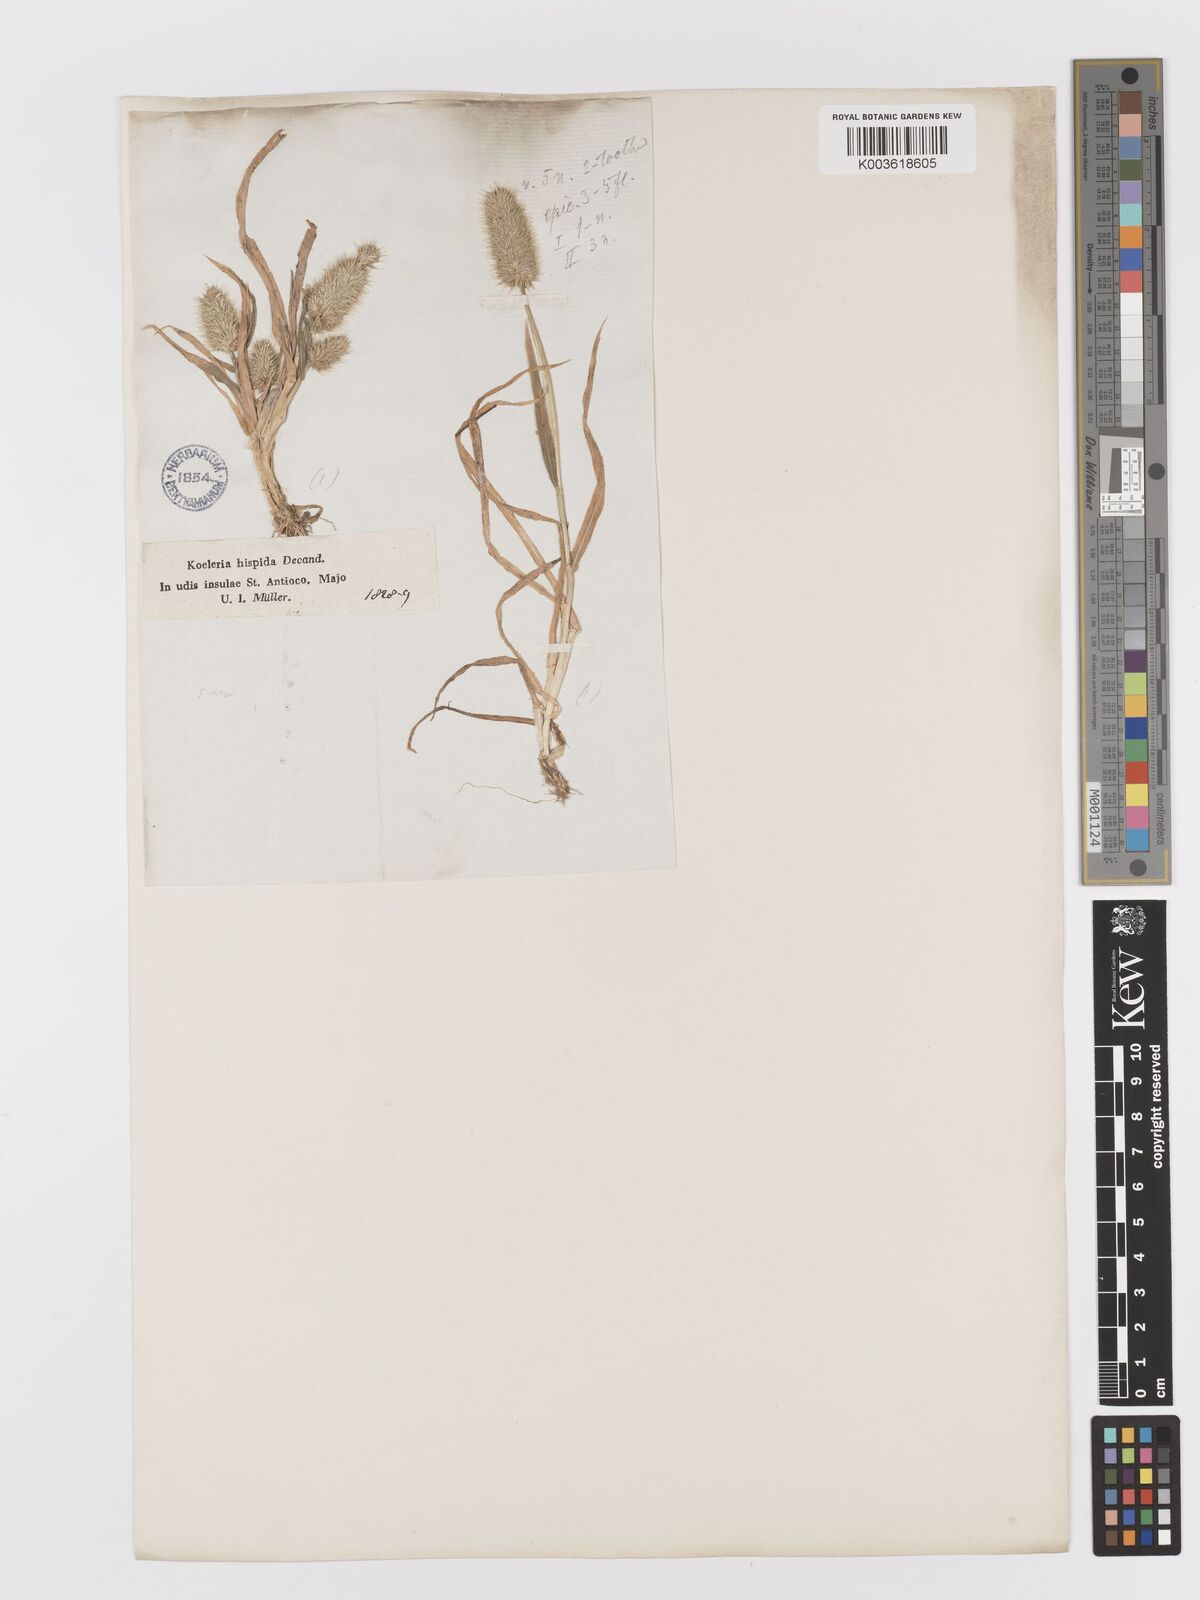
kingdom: Plantae
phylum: Tracheophyta
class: Liliopsida
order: Poales
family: Poaceae
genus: Rostraria
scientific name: Rostraria hispida
